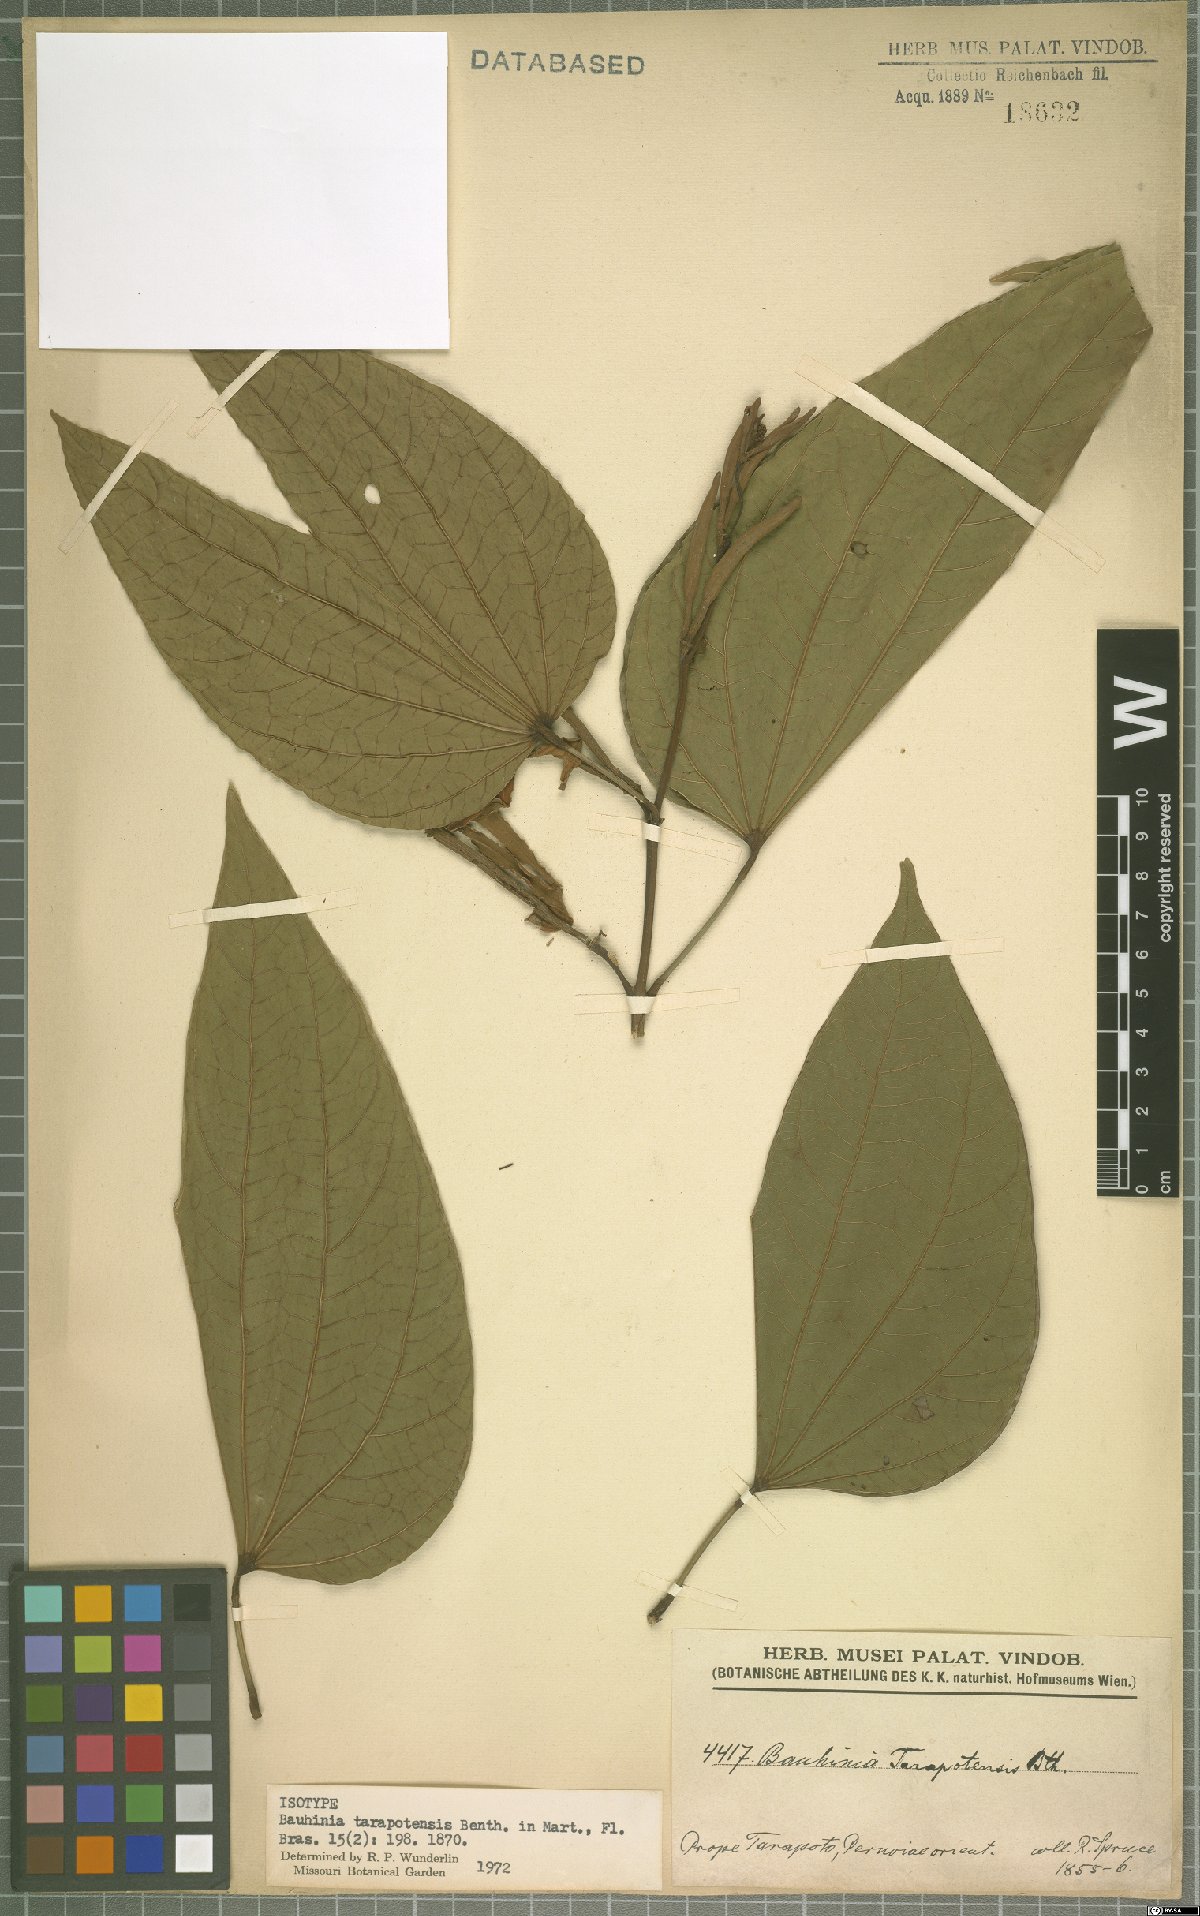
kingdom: Plantae
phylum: Tracheophyta
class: Magnoliopsida
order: Fabales
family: Fabaceae
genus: Bauhinia
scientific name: Bauhinia tarapotensis
